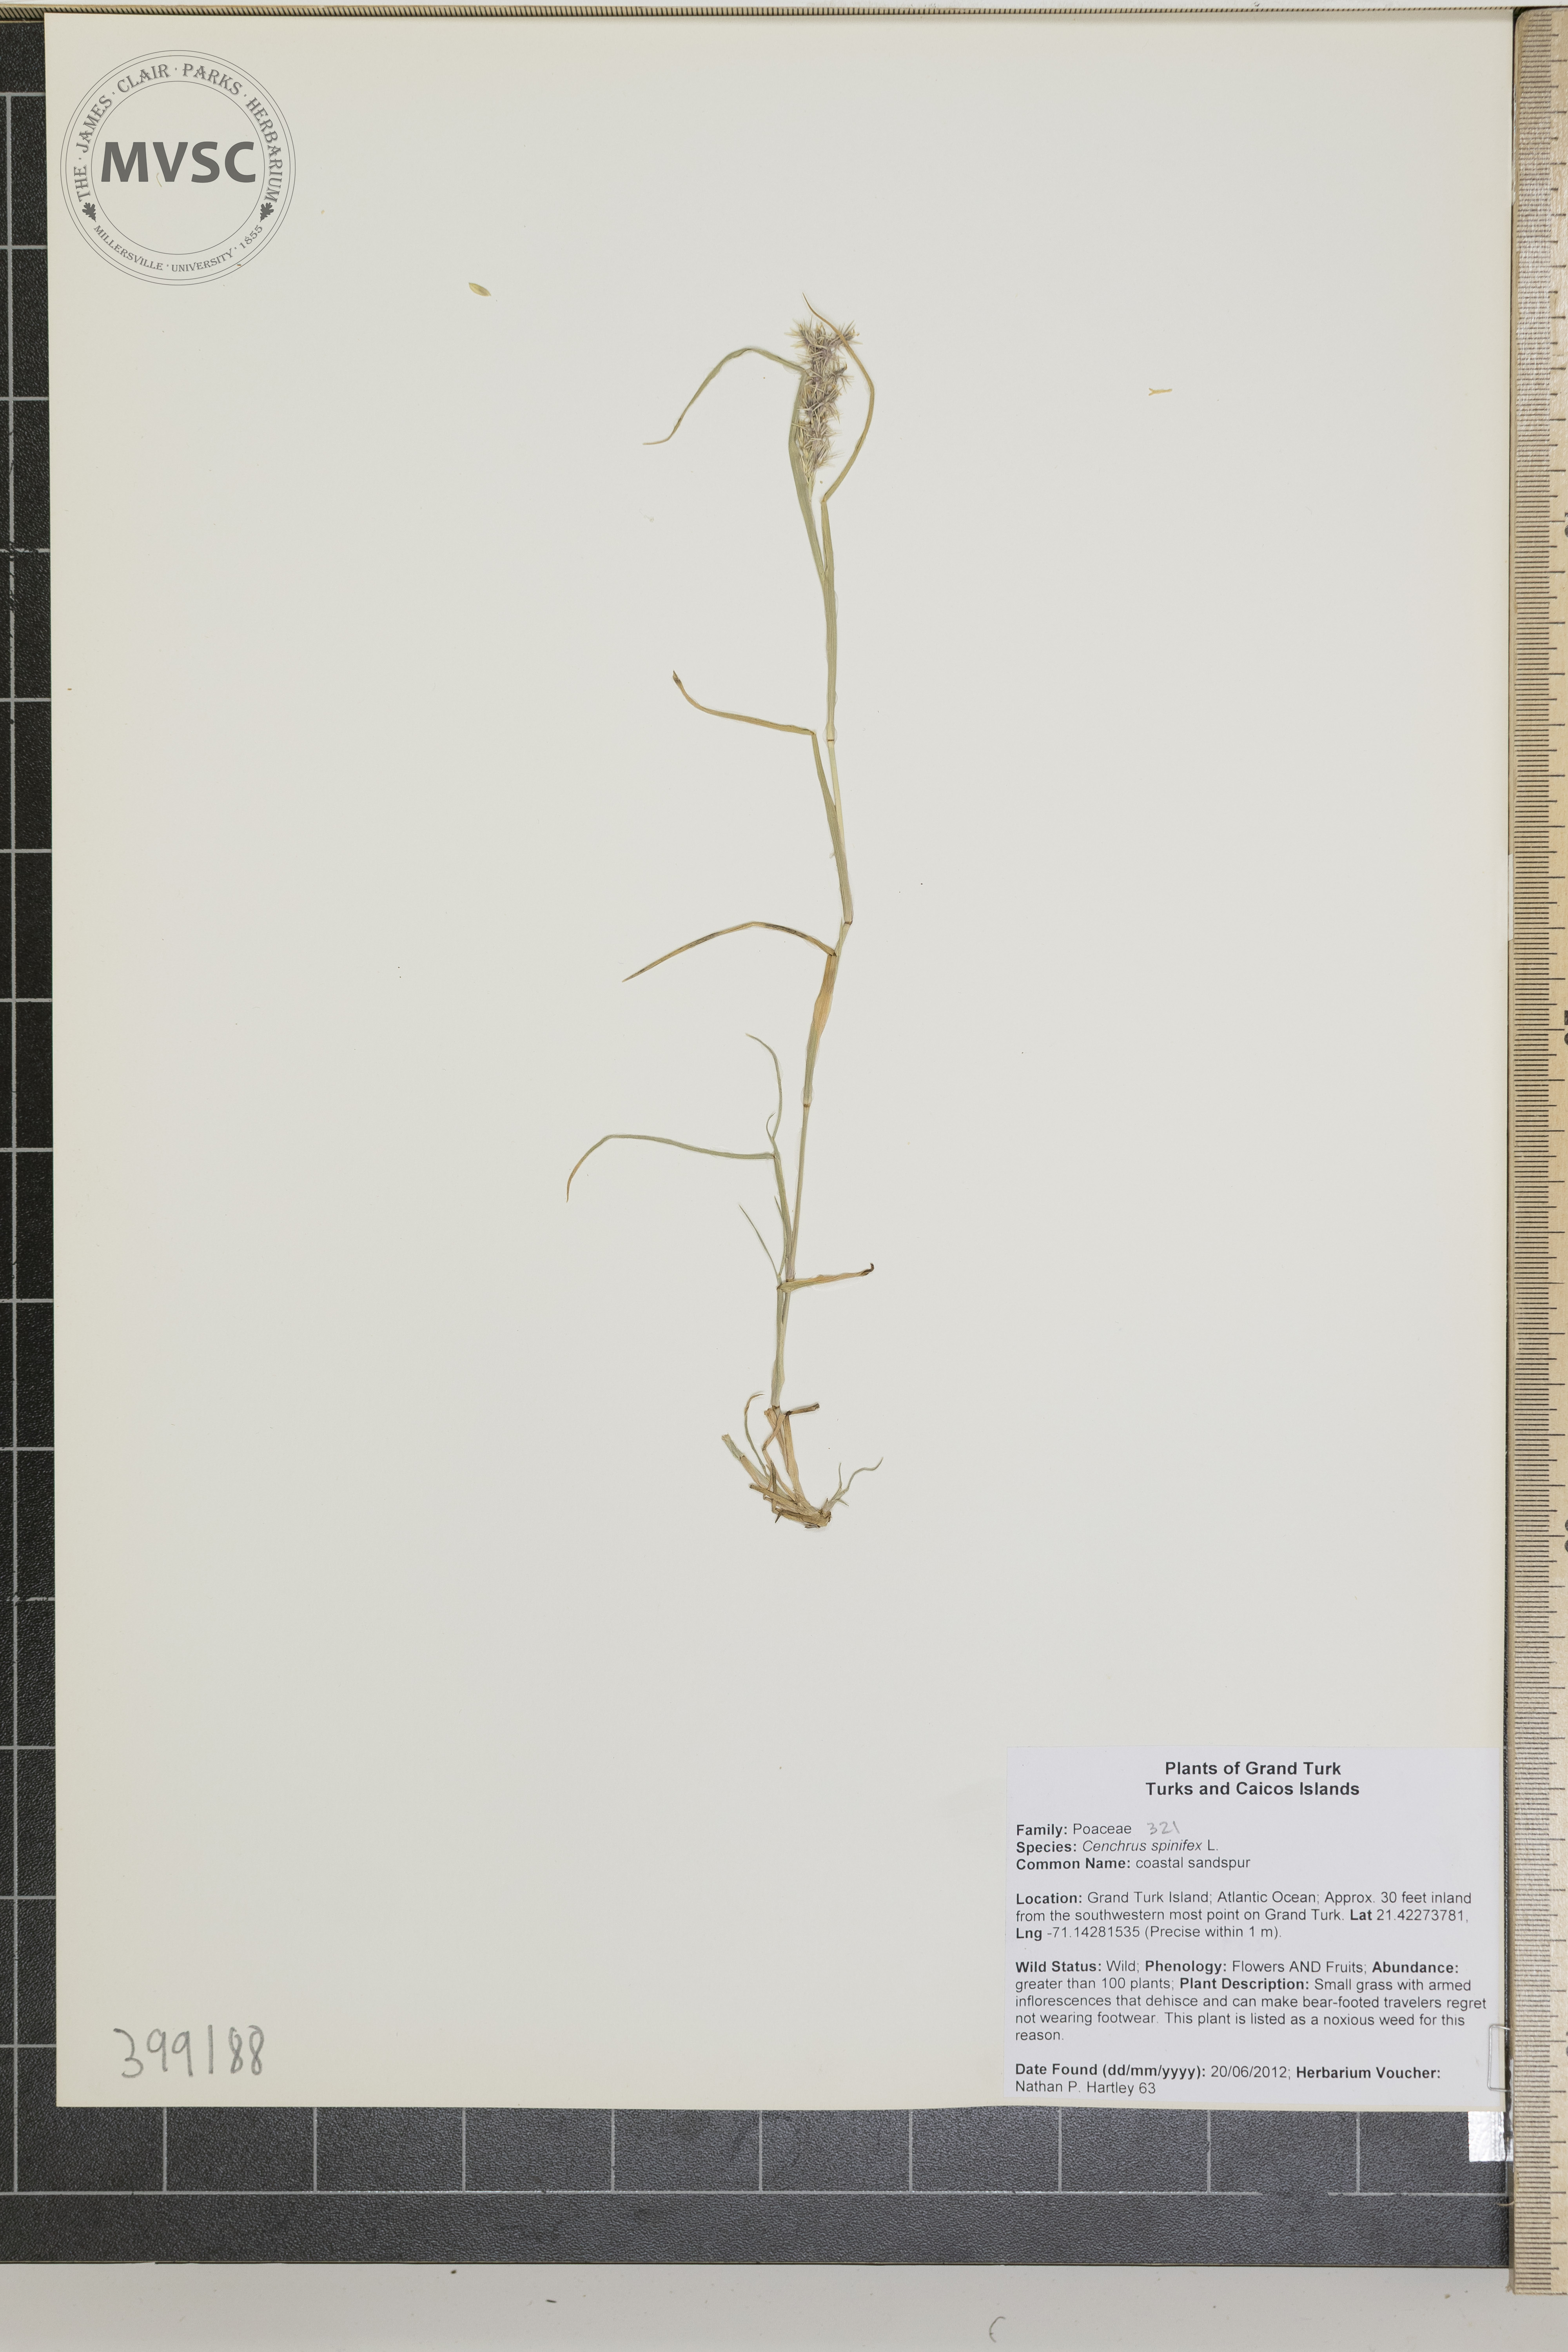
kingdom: Plantae
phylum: Tracheophyta
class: Liliopsida
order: Poales
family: Poaceae
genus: Cenchrus
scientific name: Cenchrus spinifex
